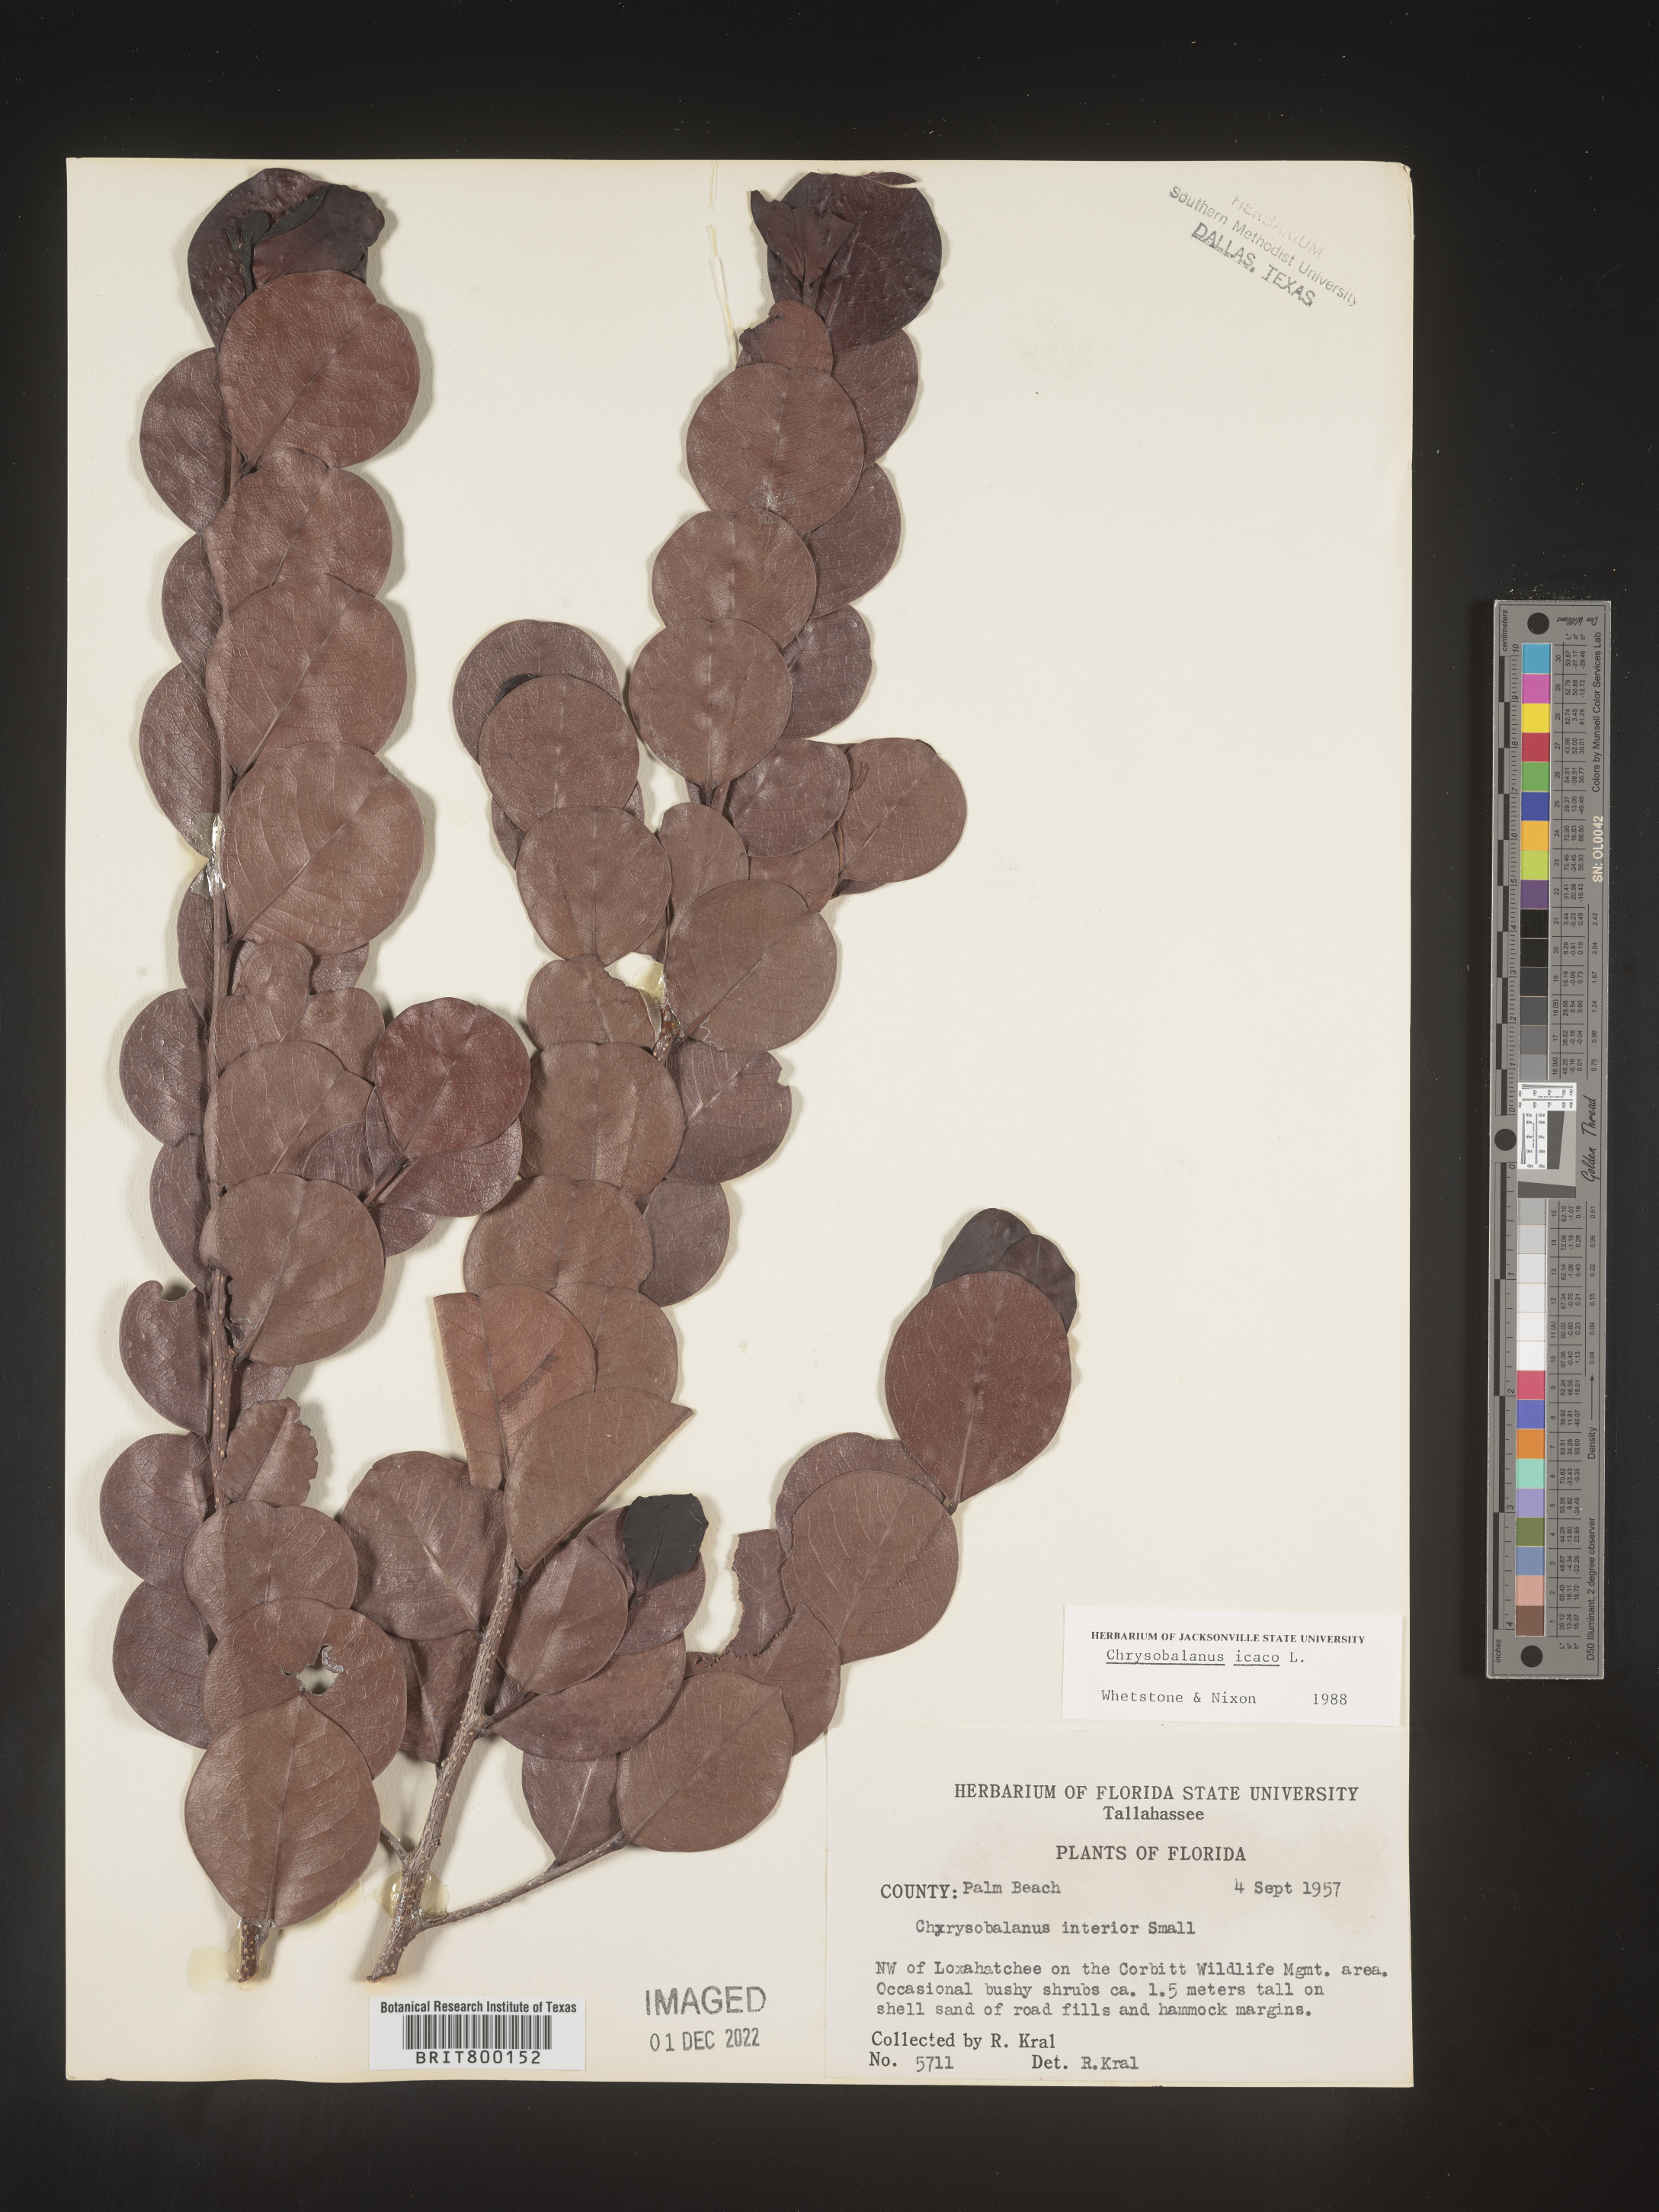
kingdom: Plantae
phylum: Tracheophyta
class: Magnoliopsida
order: Malpighiales
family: Chrysobalanaceae
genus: Chrysobalanus
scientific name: Chrysobalanus icaco
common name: Coco plum
